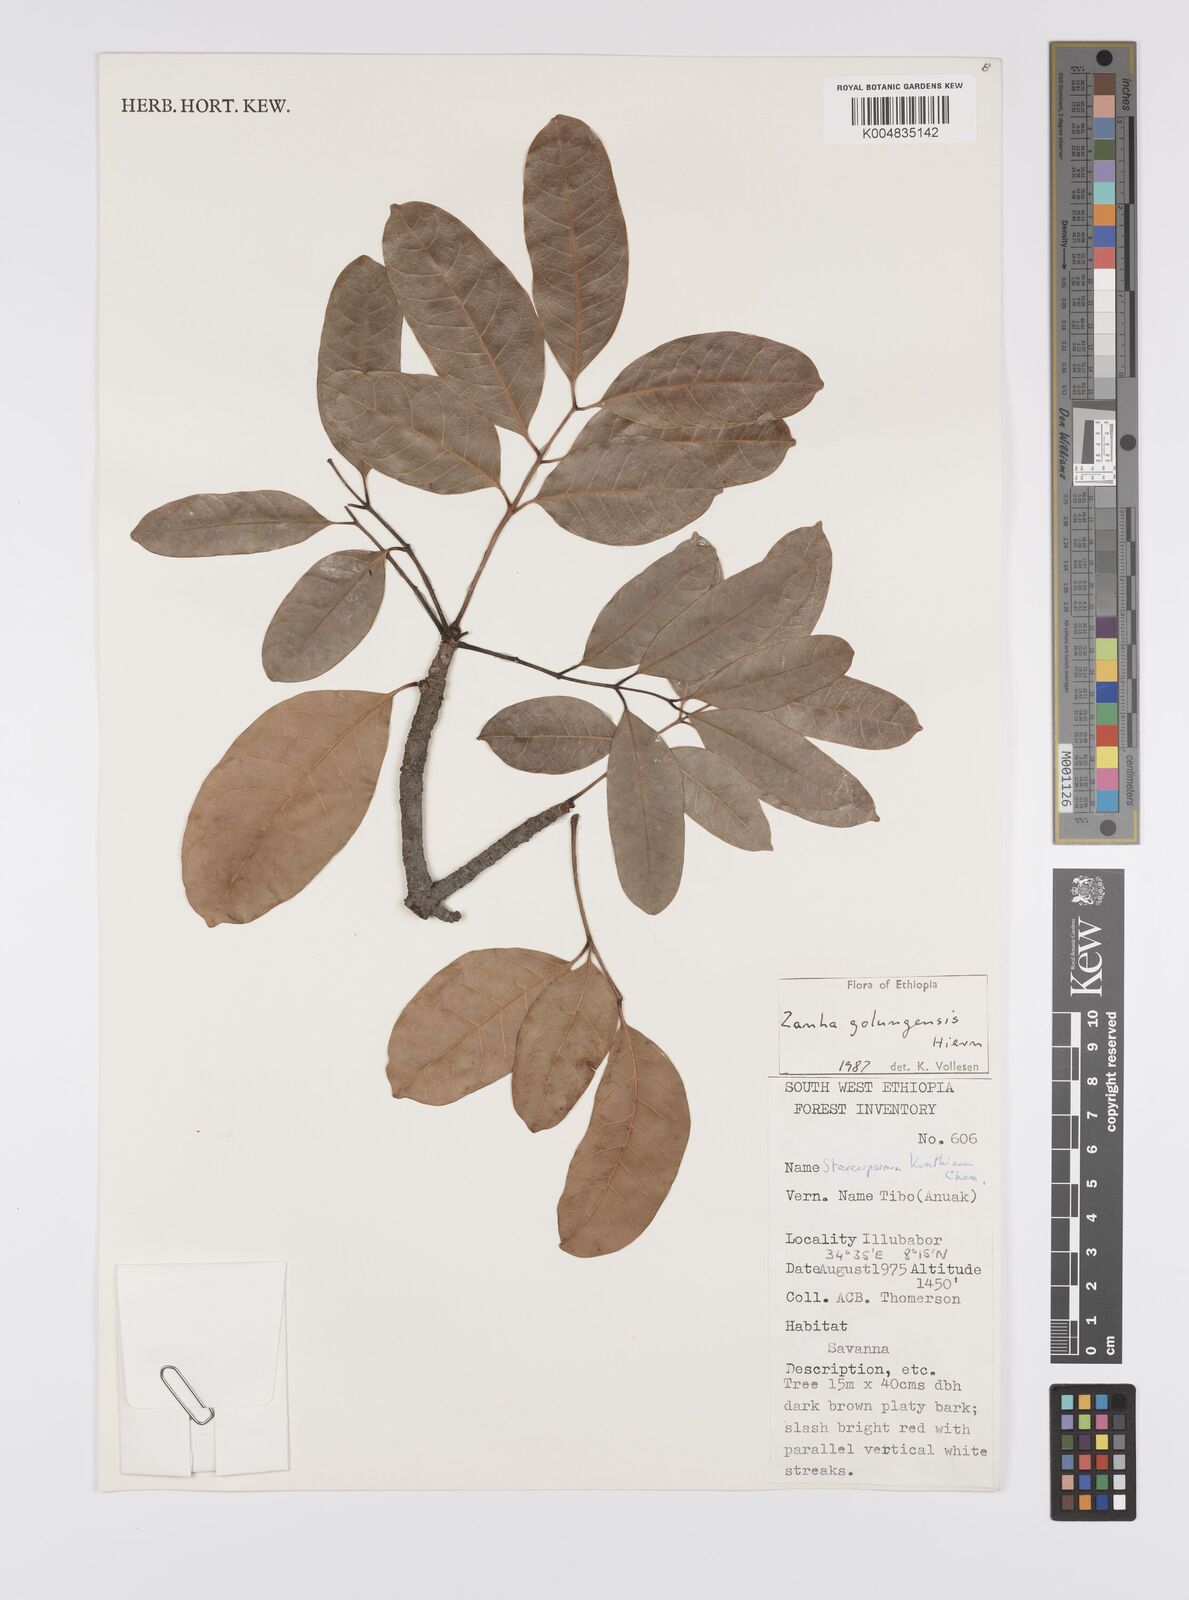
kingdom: Plantae
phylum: Tracheophyta
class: Magnoliopsida
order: Sapindales
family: Sapindaceae
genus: Zanha
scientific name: Zanha golungensis
